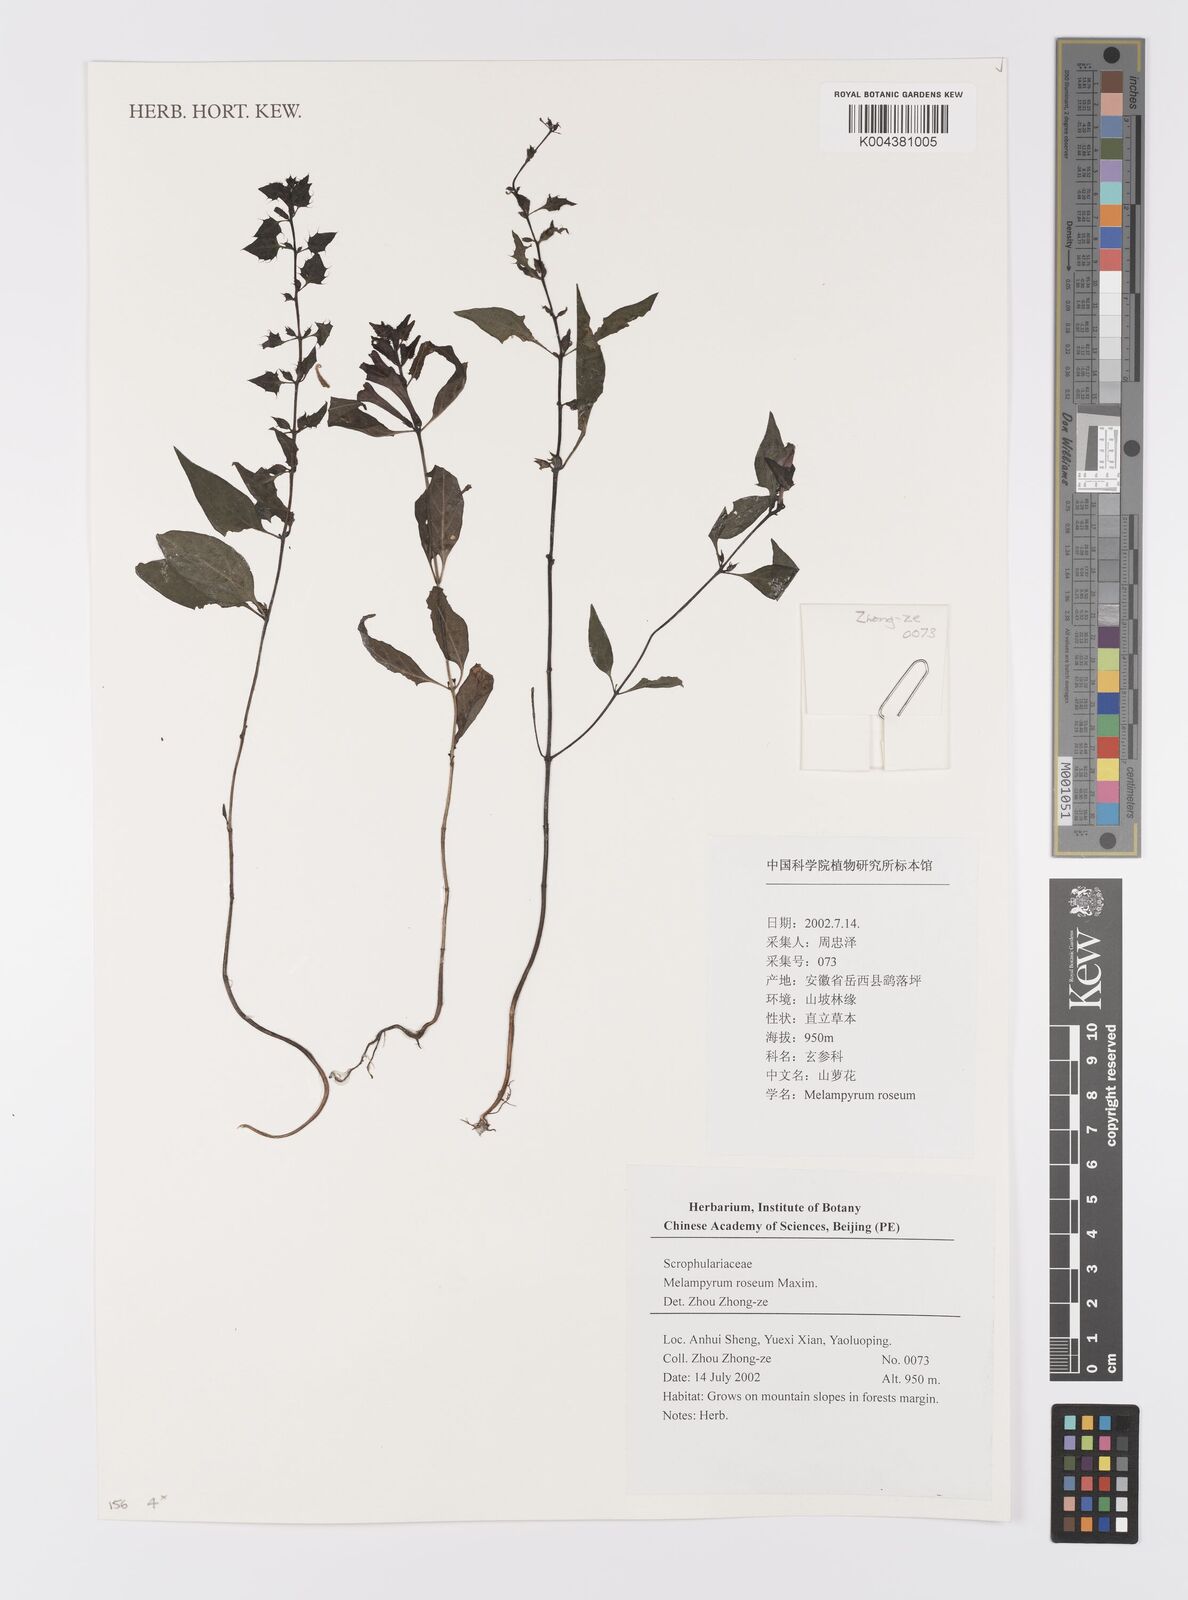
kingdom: Plantae
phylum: Tracheophyta
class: Magnoliopsida
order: Lamiales
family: Orobanchaceae
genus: Melampyrum
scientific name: Melampyrum roseum
